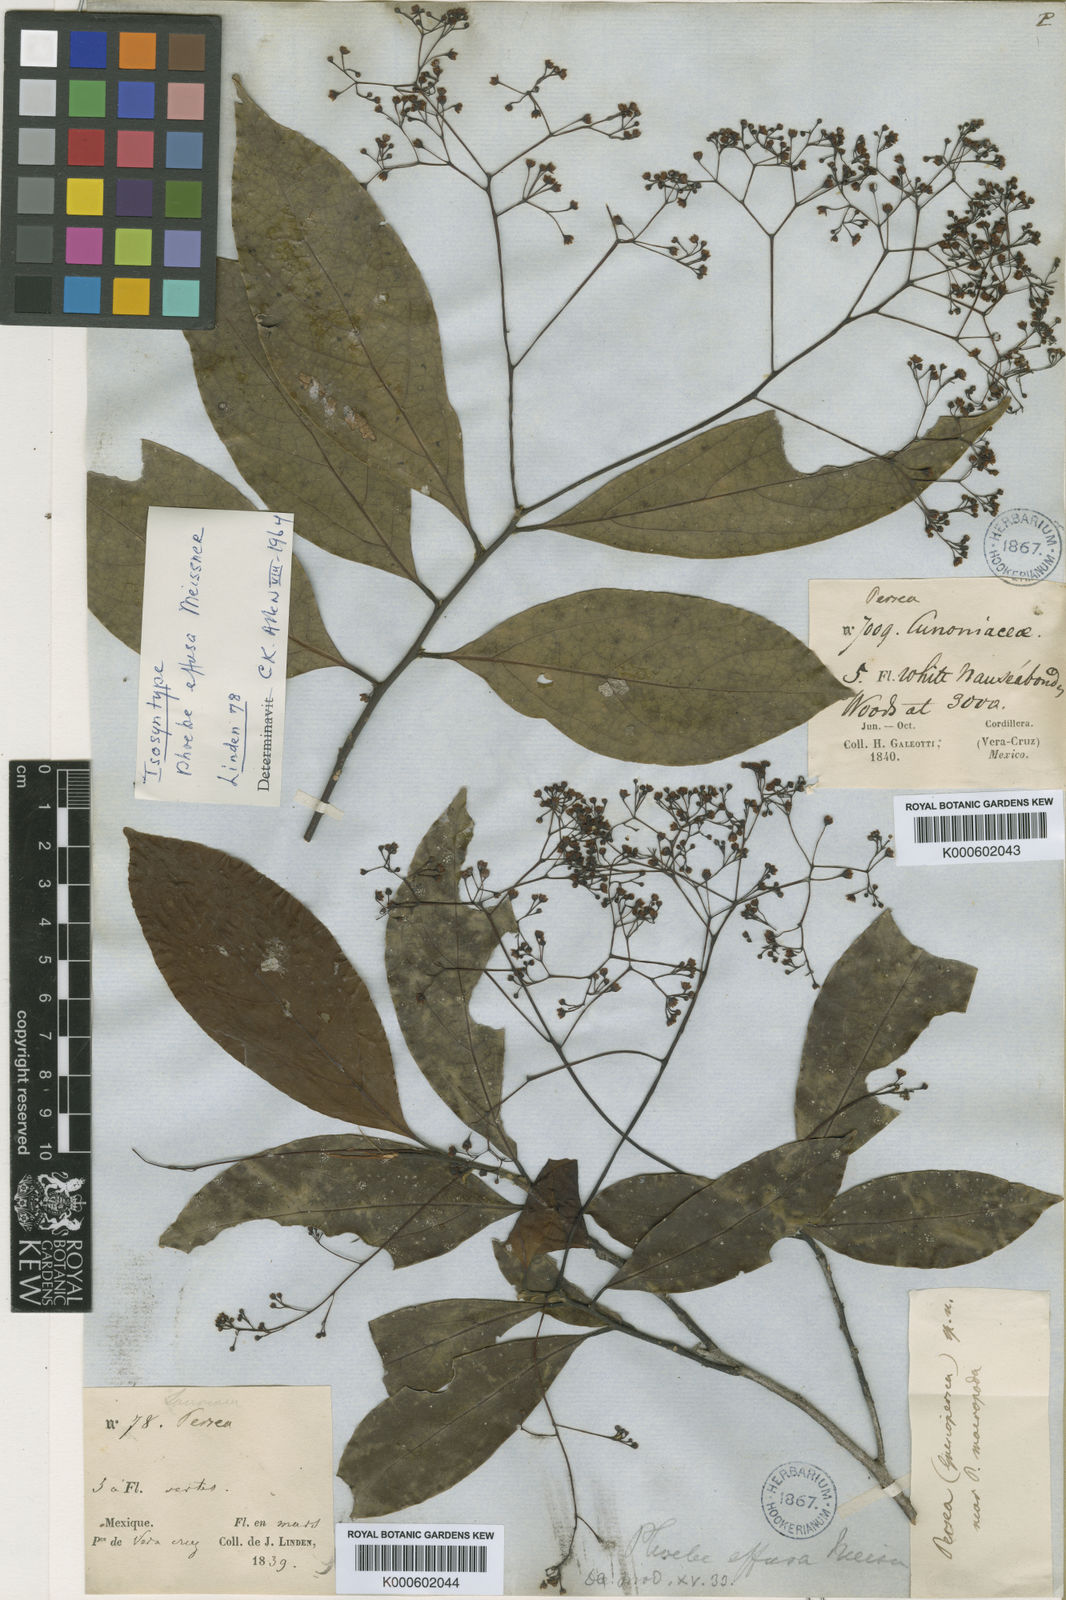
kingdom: Plantae
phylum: Tracheophyta
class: Magnoliopsida
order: Laurales
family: Lauraceae
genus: Ocotea
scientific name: Ocotea effusa
